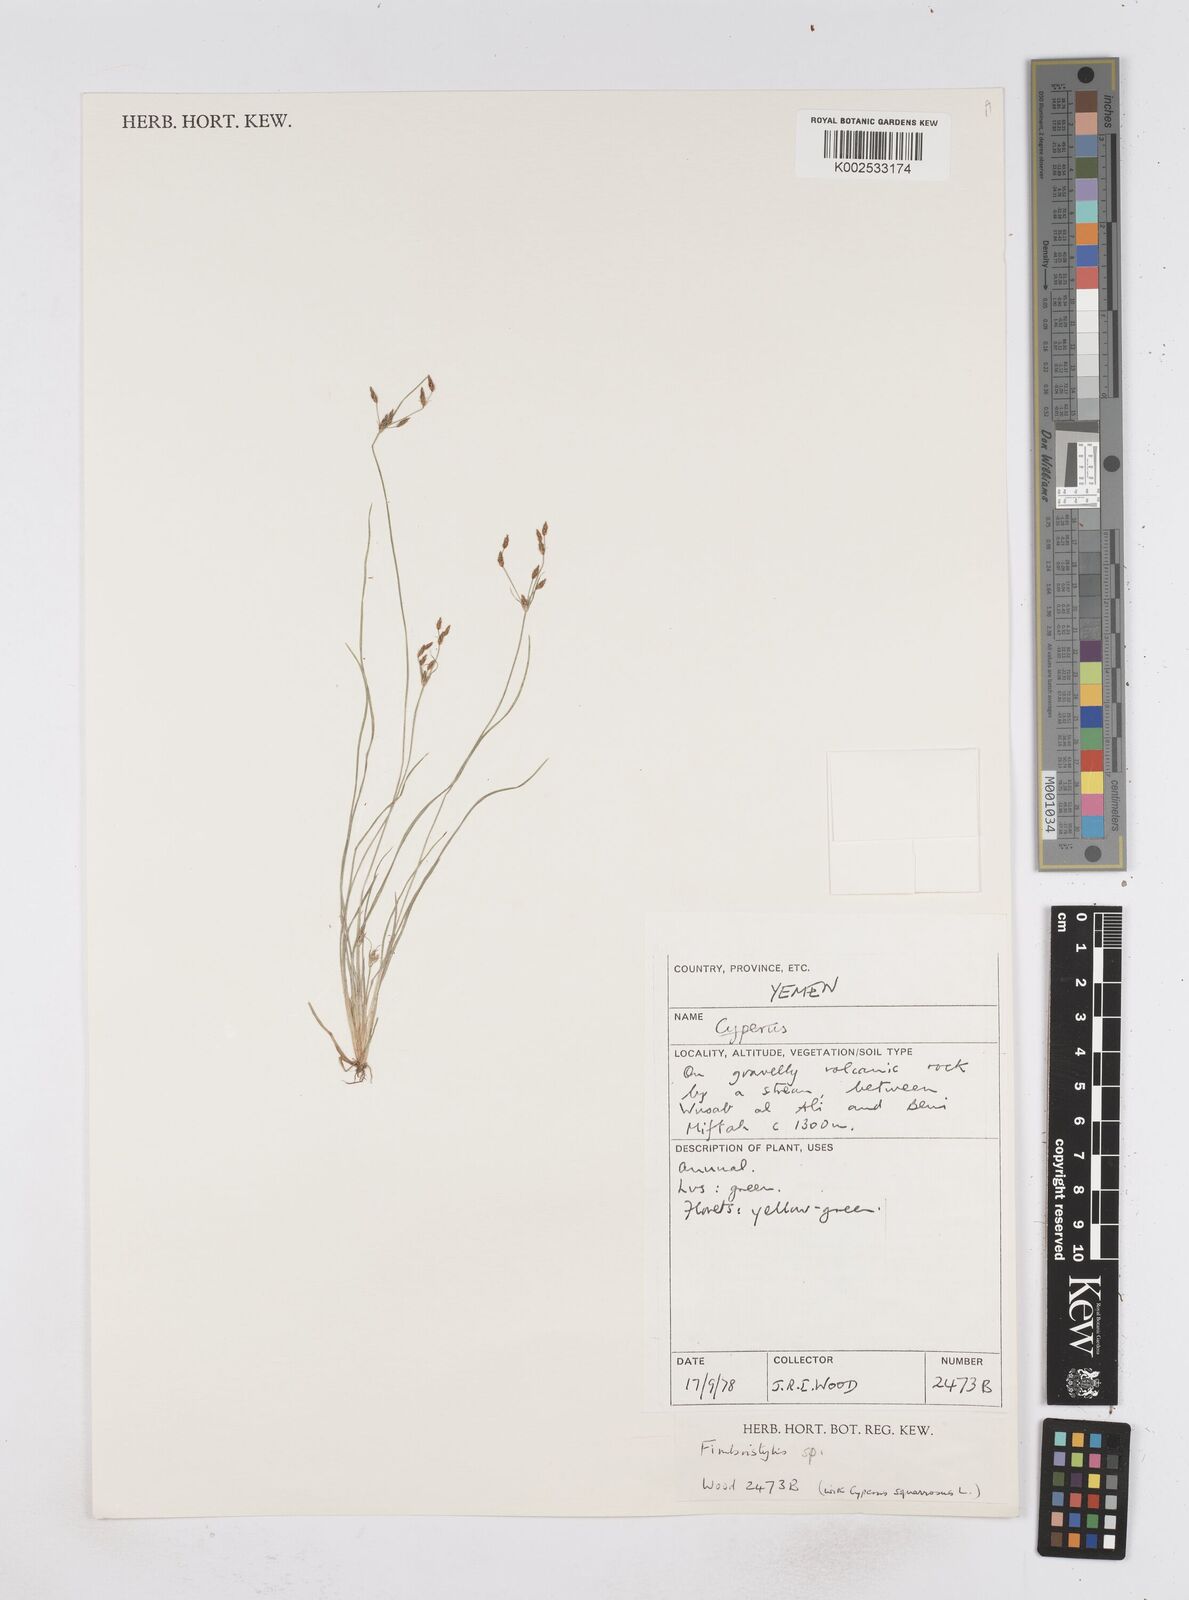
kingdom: Plantae
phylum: Tracheophyta
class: Liliopsida
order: Poales
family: Cyperaceae
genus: Fimbristylis
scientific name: Fimbristylis
